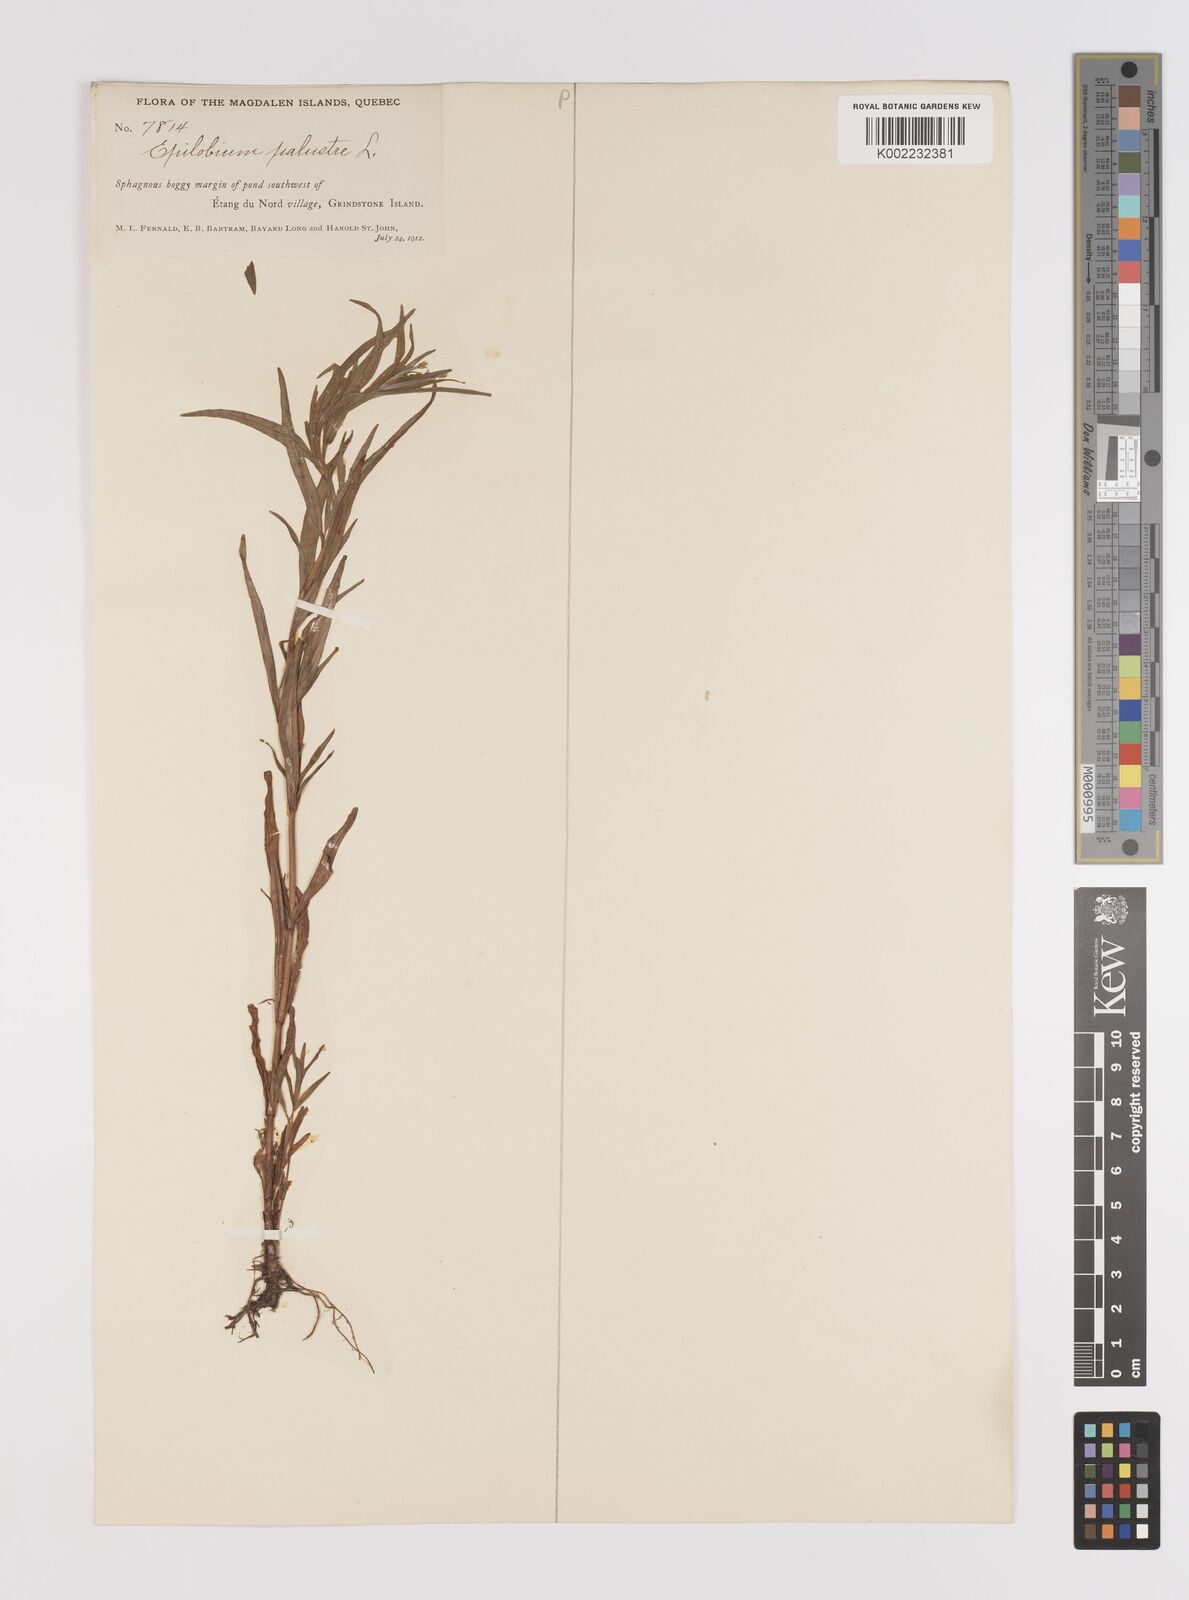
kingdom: Plantae
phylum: Tracheophyta
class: Magnoliopsida
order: Myrtales
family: Onagraceae
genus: Epilobium
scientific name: Epilobium palustre
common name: Marsh willowherb
